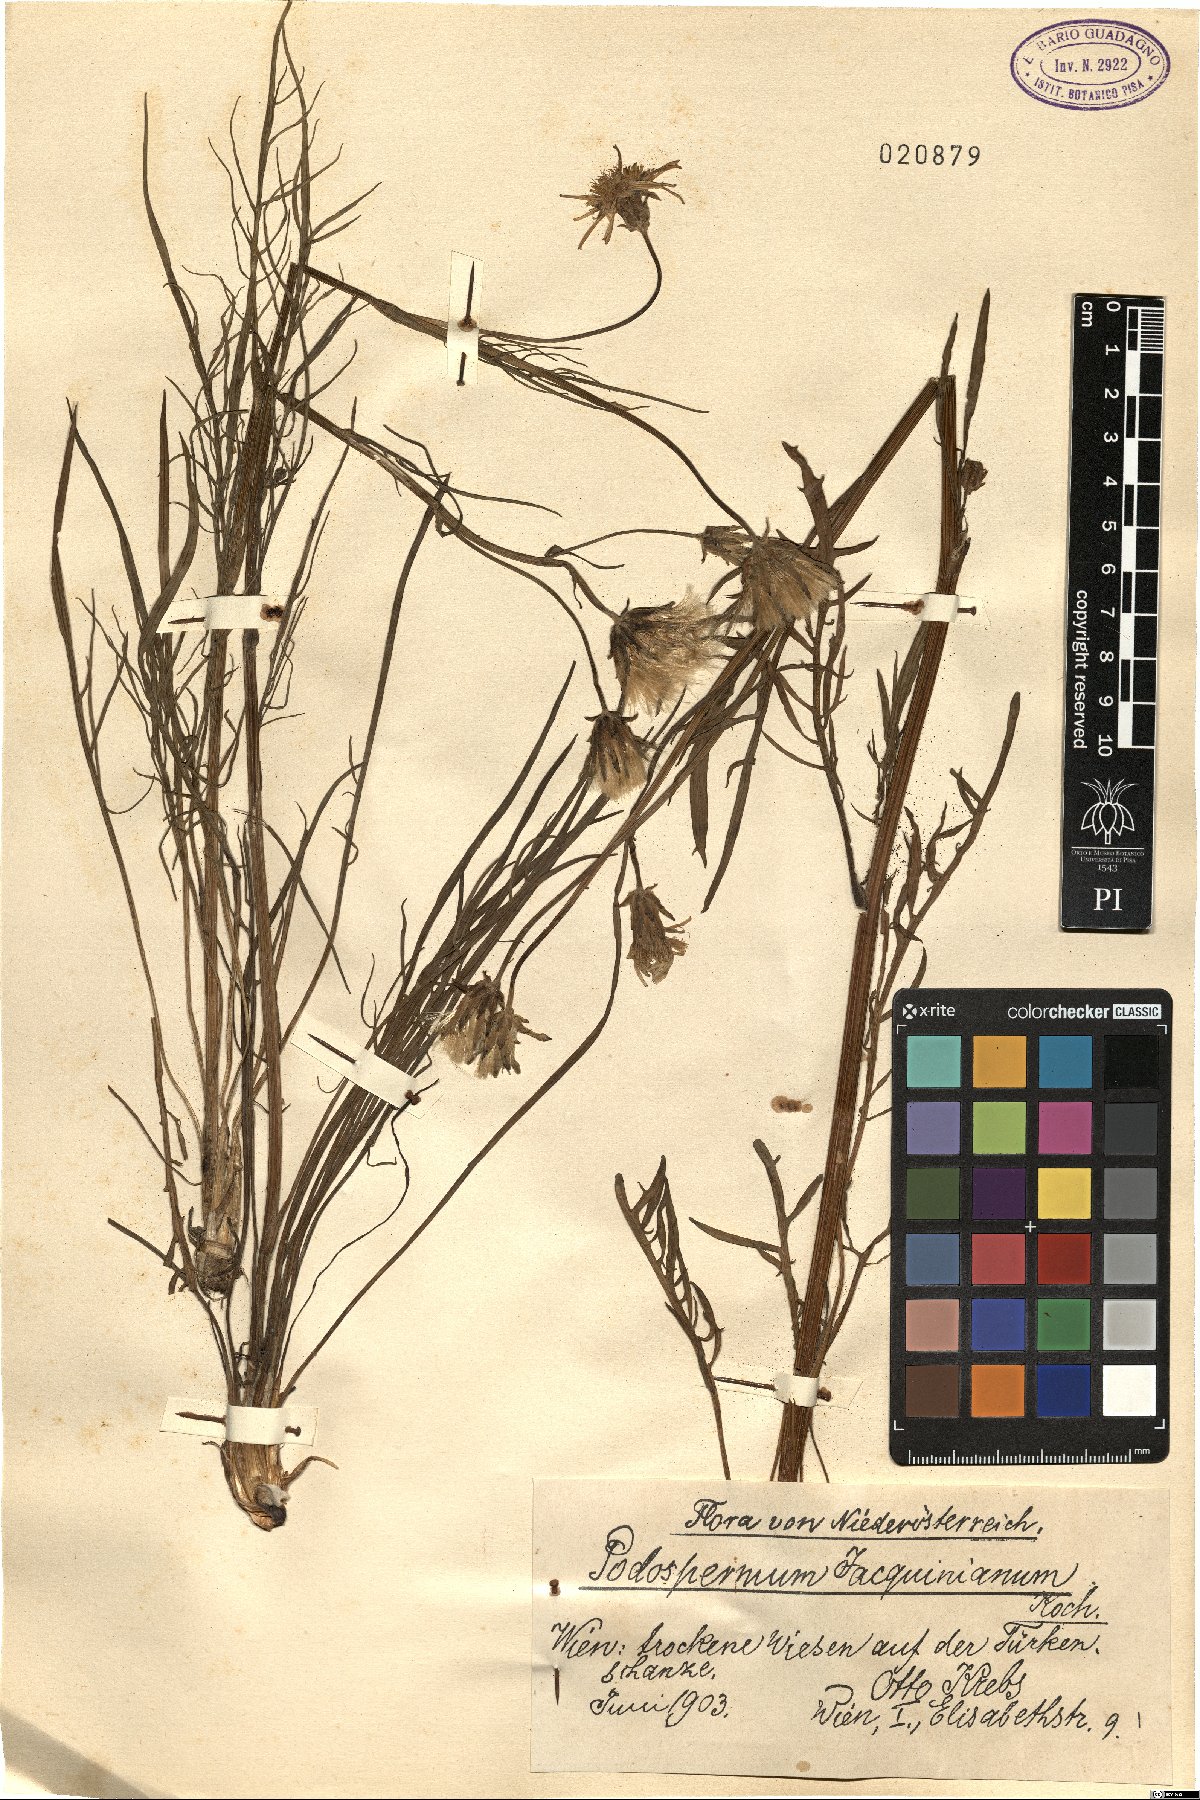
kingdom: Plantae
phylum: Tracheophyta
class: Magnoliopsida
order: Asterales
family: Asteraceae
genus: Scorzonera
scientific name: Scorzonera cana
